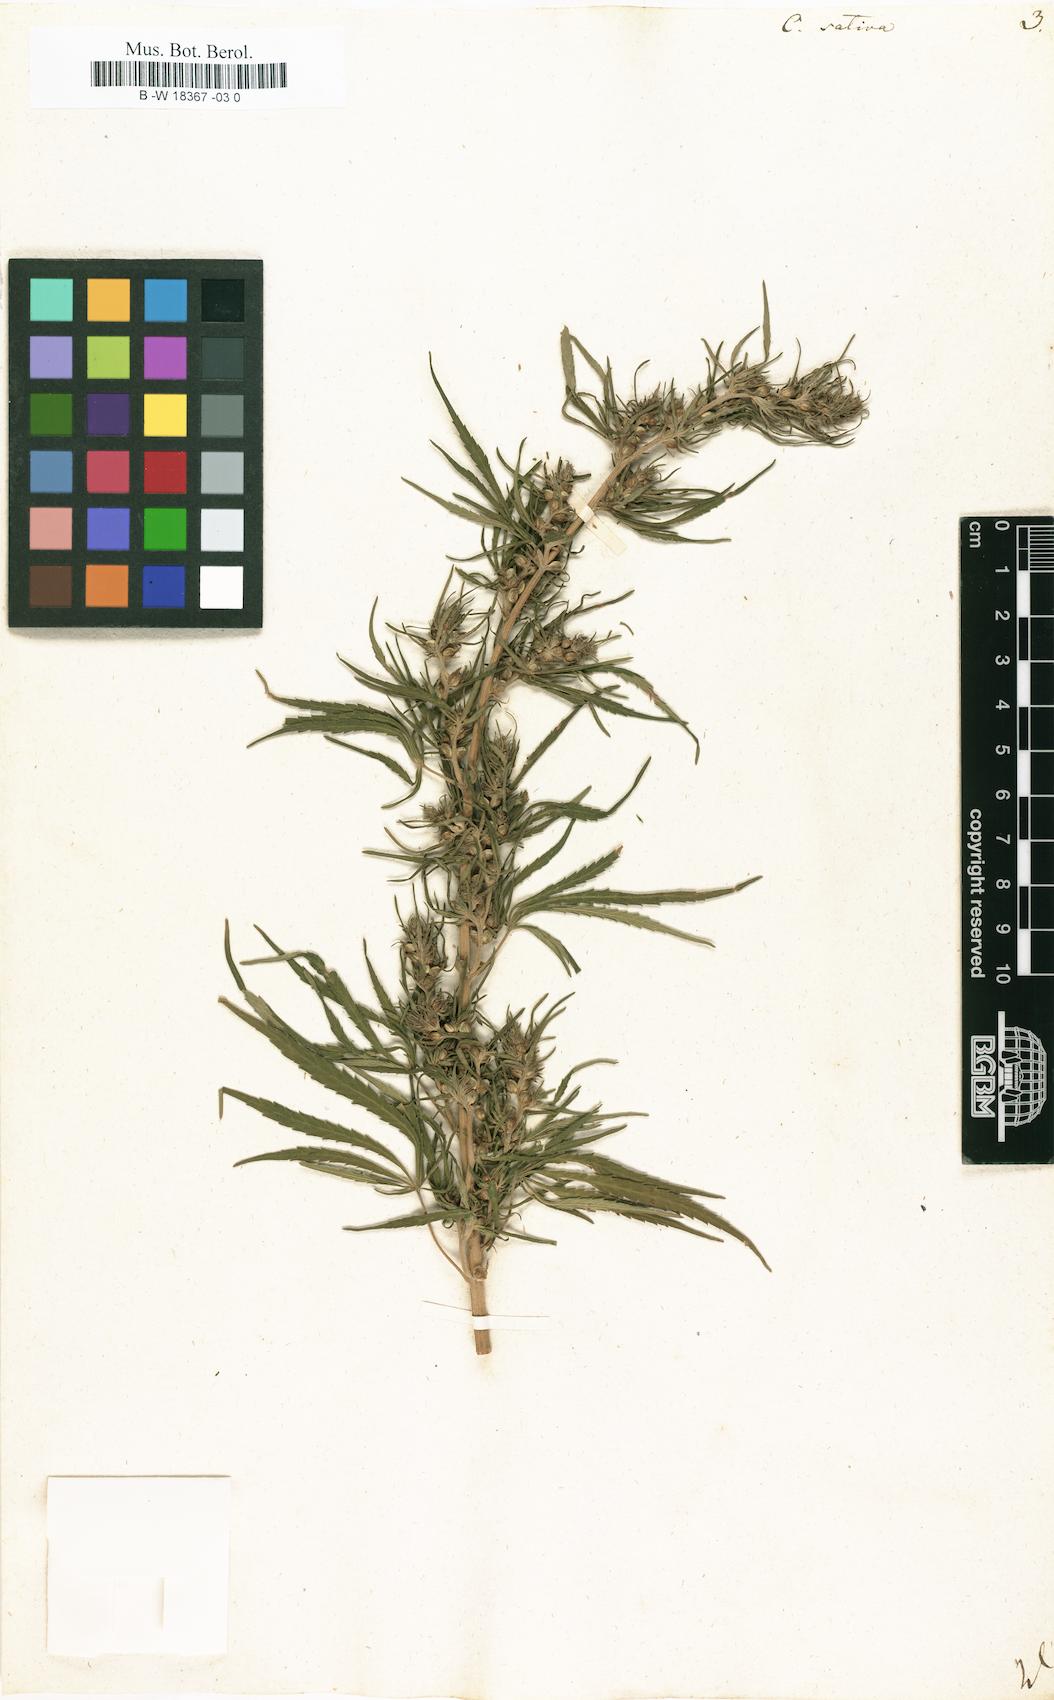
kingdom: Plantae
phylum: Tracheophyta
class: Magnoliopsida
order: Rosales
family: Cannabaceae
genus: Cannabis
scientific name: Cannabis sativa
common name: Hemp
